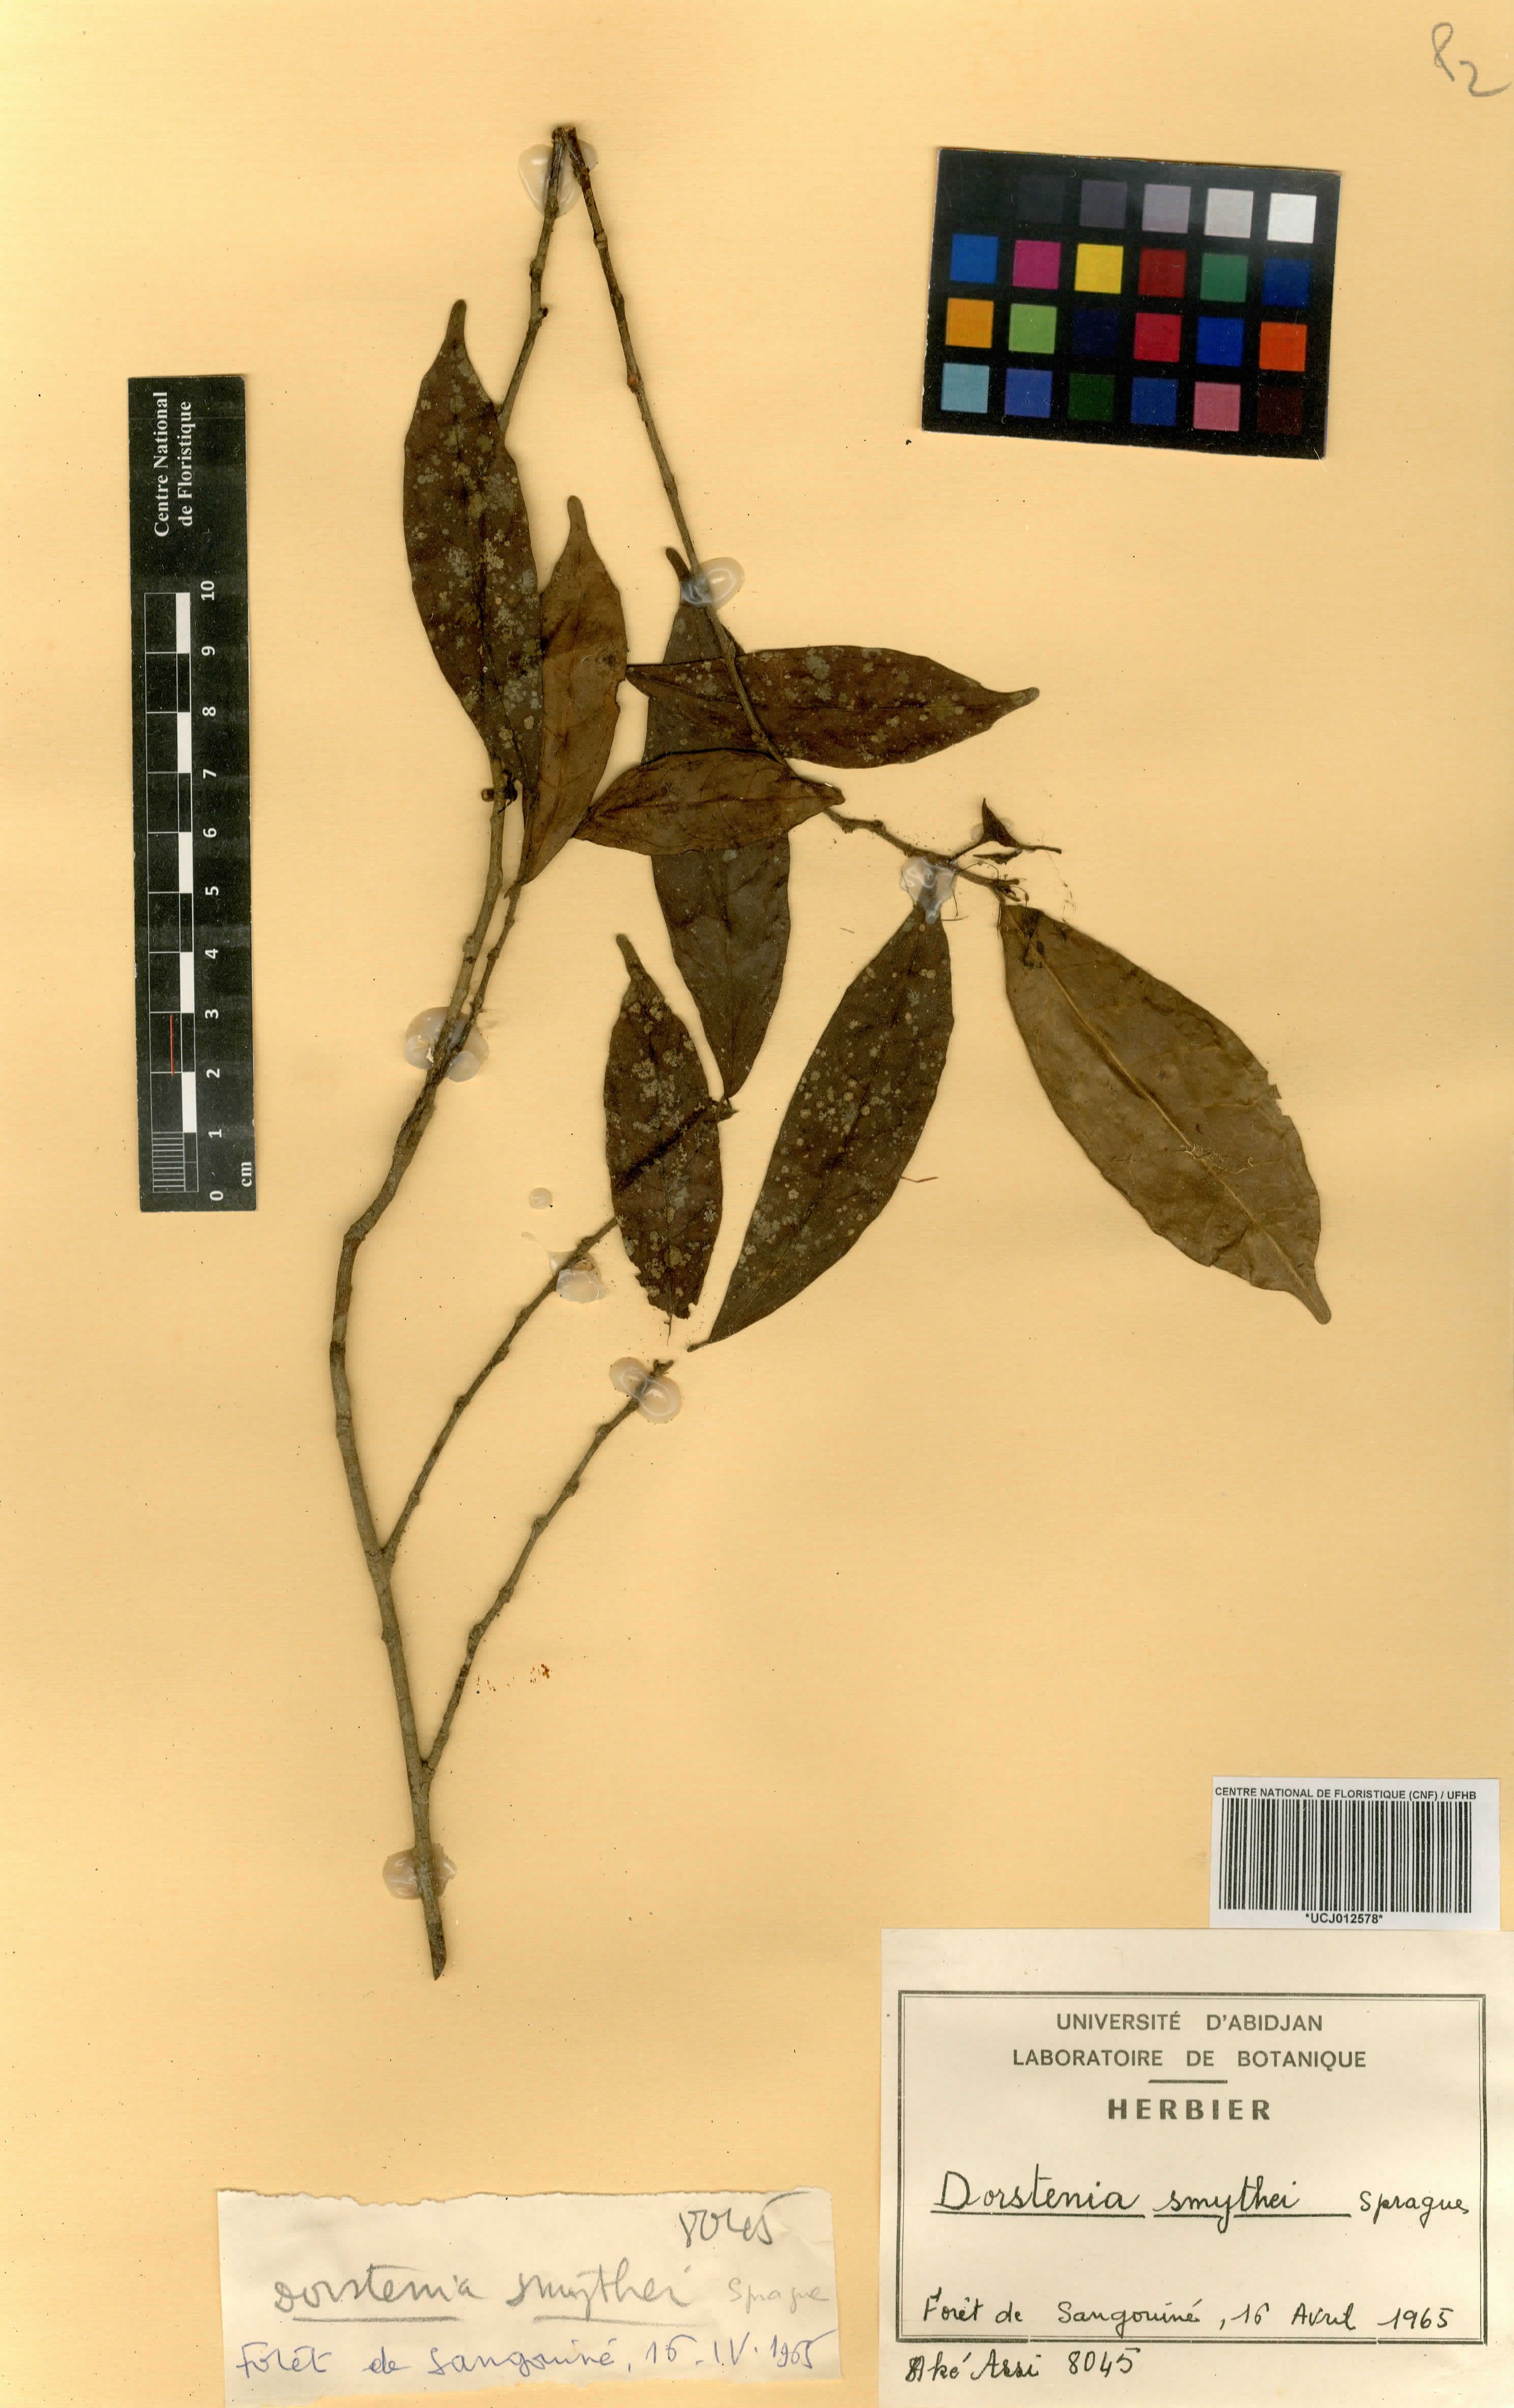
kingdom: Plantae
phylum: Tracheophyta
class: Magnoliopsida
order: Rosales
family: Moraceae
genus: Hijmania
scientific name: Hijmania turbinata
